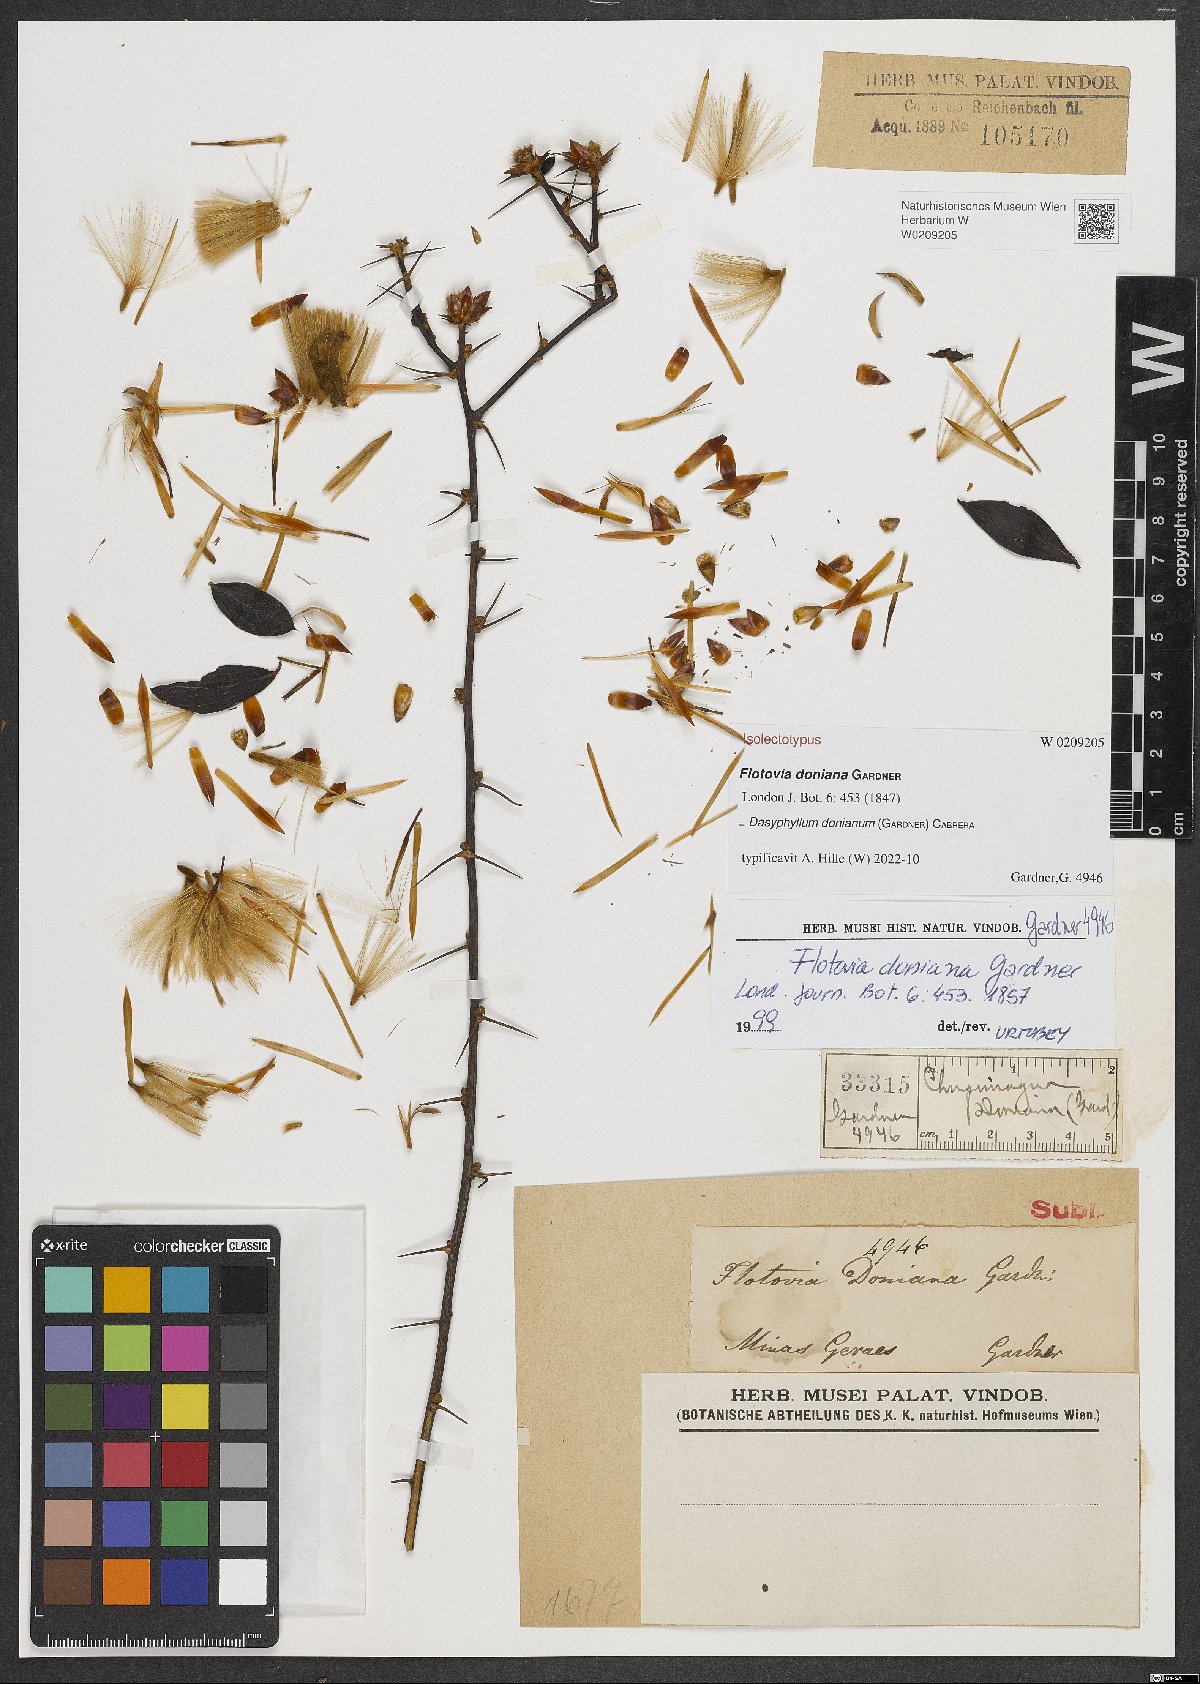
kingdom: Plantae
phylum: Tracheophyta
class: Magnoliopsida
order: Asterales
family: Asteraceae
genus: Dasyphyllum
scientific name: Dasyphyllum donianum
